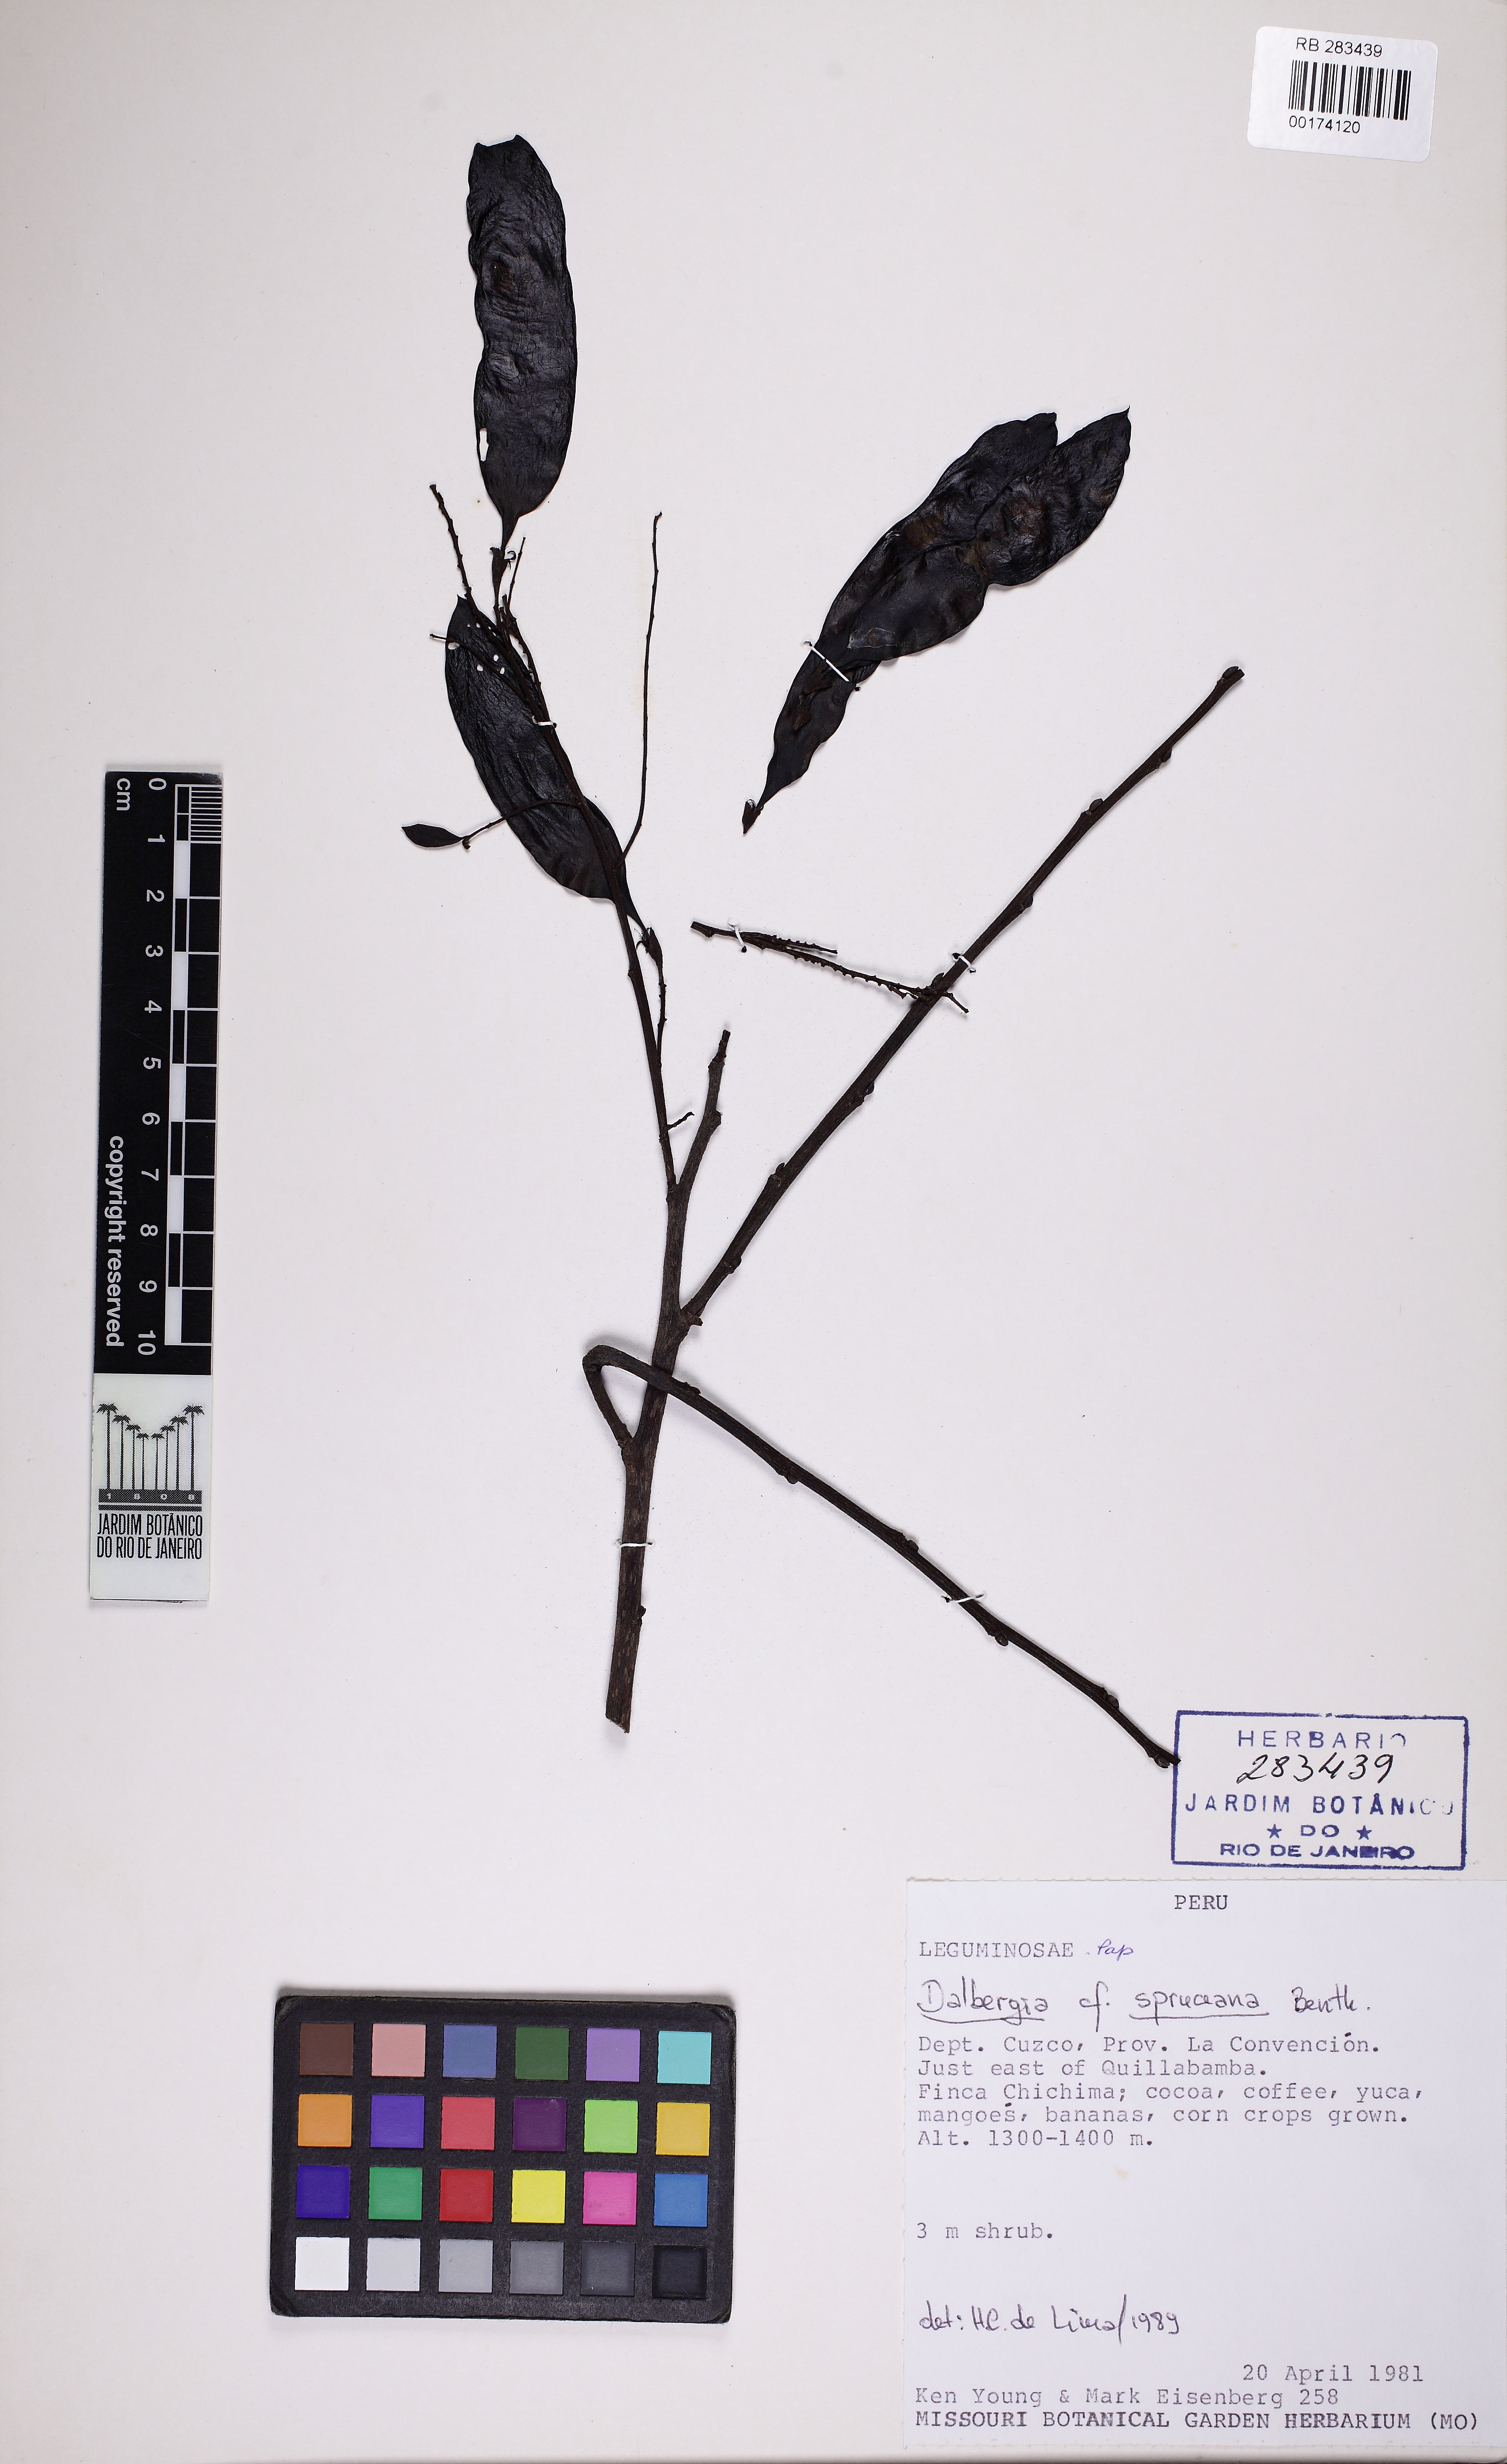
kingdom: Plantae
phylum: Tracheophyta
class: Magnoliopsida
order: Fabales
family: Fabaceae
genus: Dalbergia
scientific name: Dalbergia spruceana
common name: Amazon rosewood
